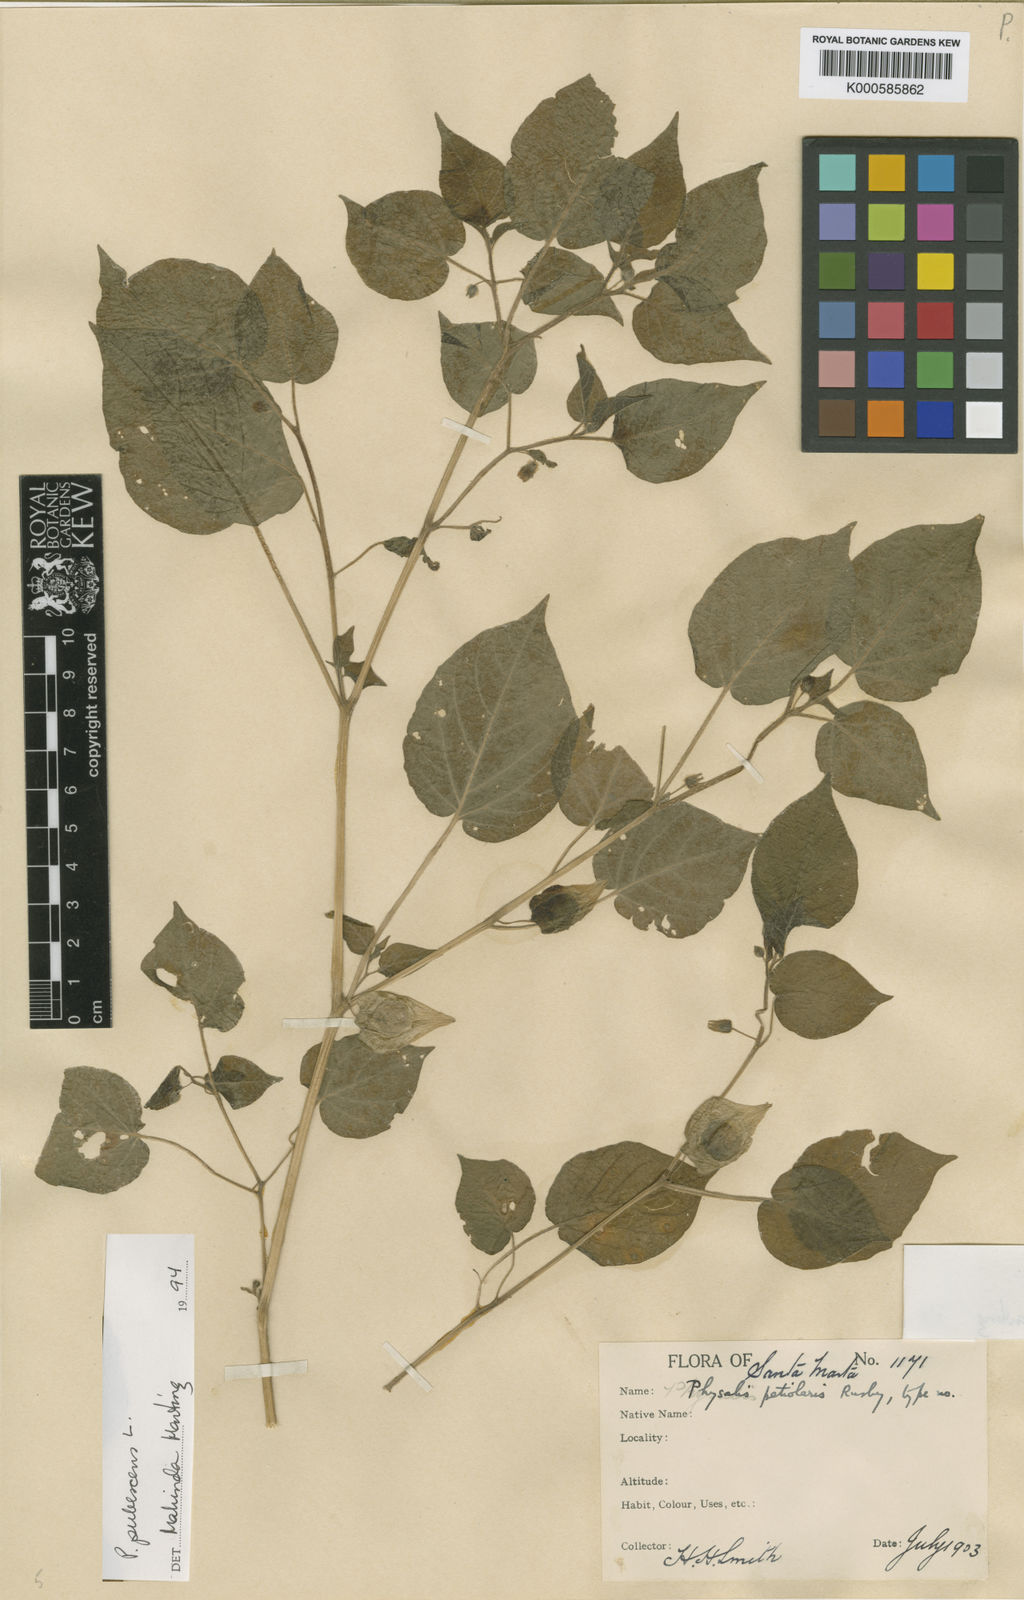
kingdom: Plantae
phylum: Tracheophyta
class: Magnoliopsida
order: Solanales
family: Solanaceae
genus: Physalis
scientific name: Physalis pubescens
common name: Downy ground-cherry
